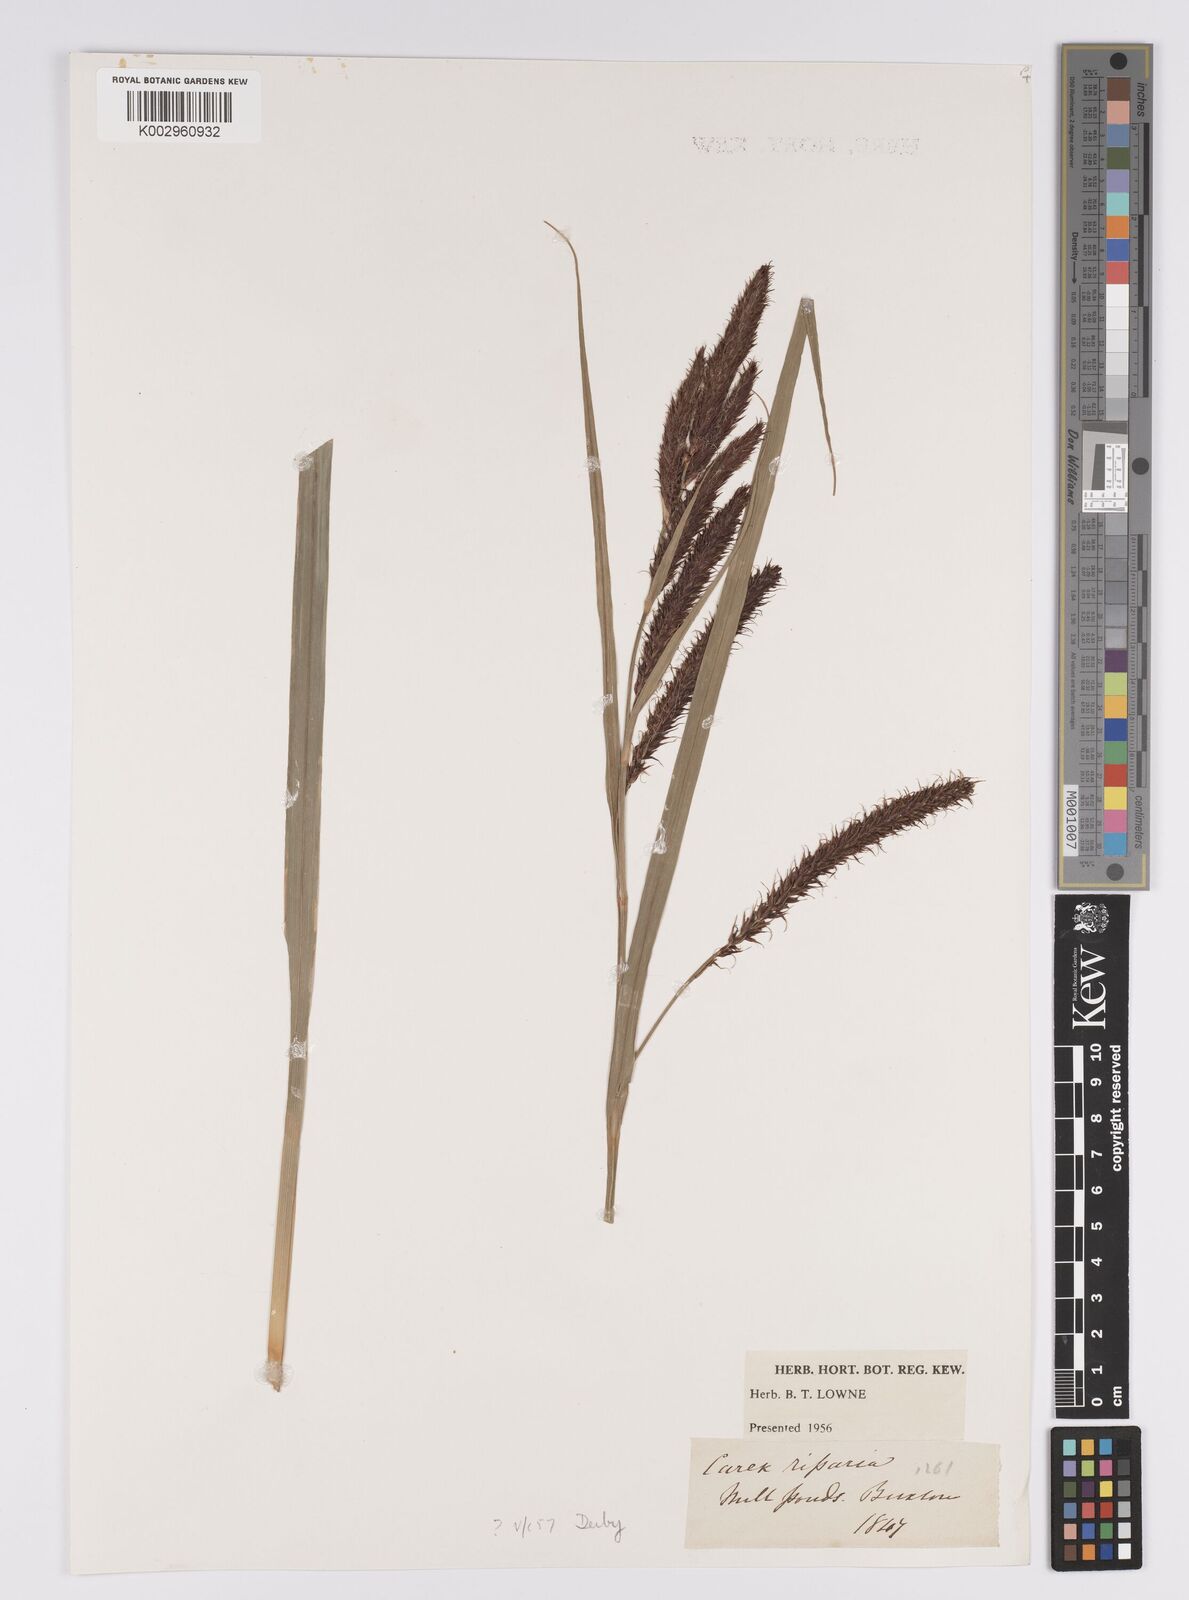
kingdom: Plantae
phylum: Tracheophyta
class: Liliopsida
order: Poales
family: Cyperaceae
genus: Carex
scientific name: Carex riparia
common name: Greater pond-sedge
